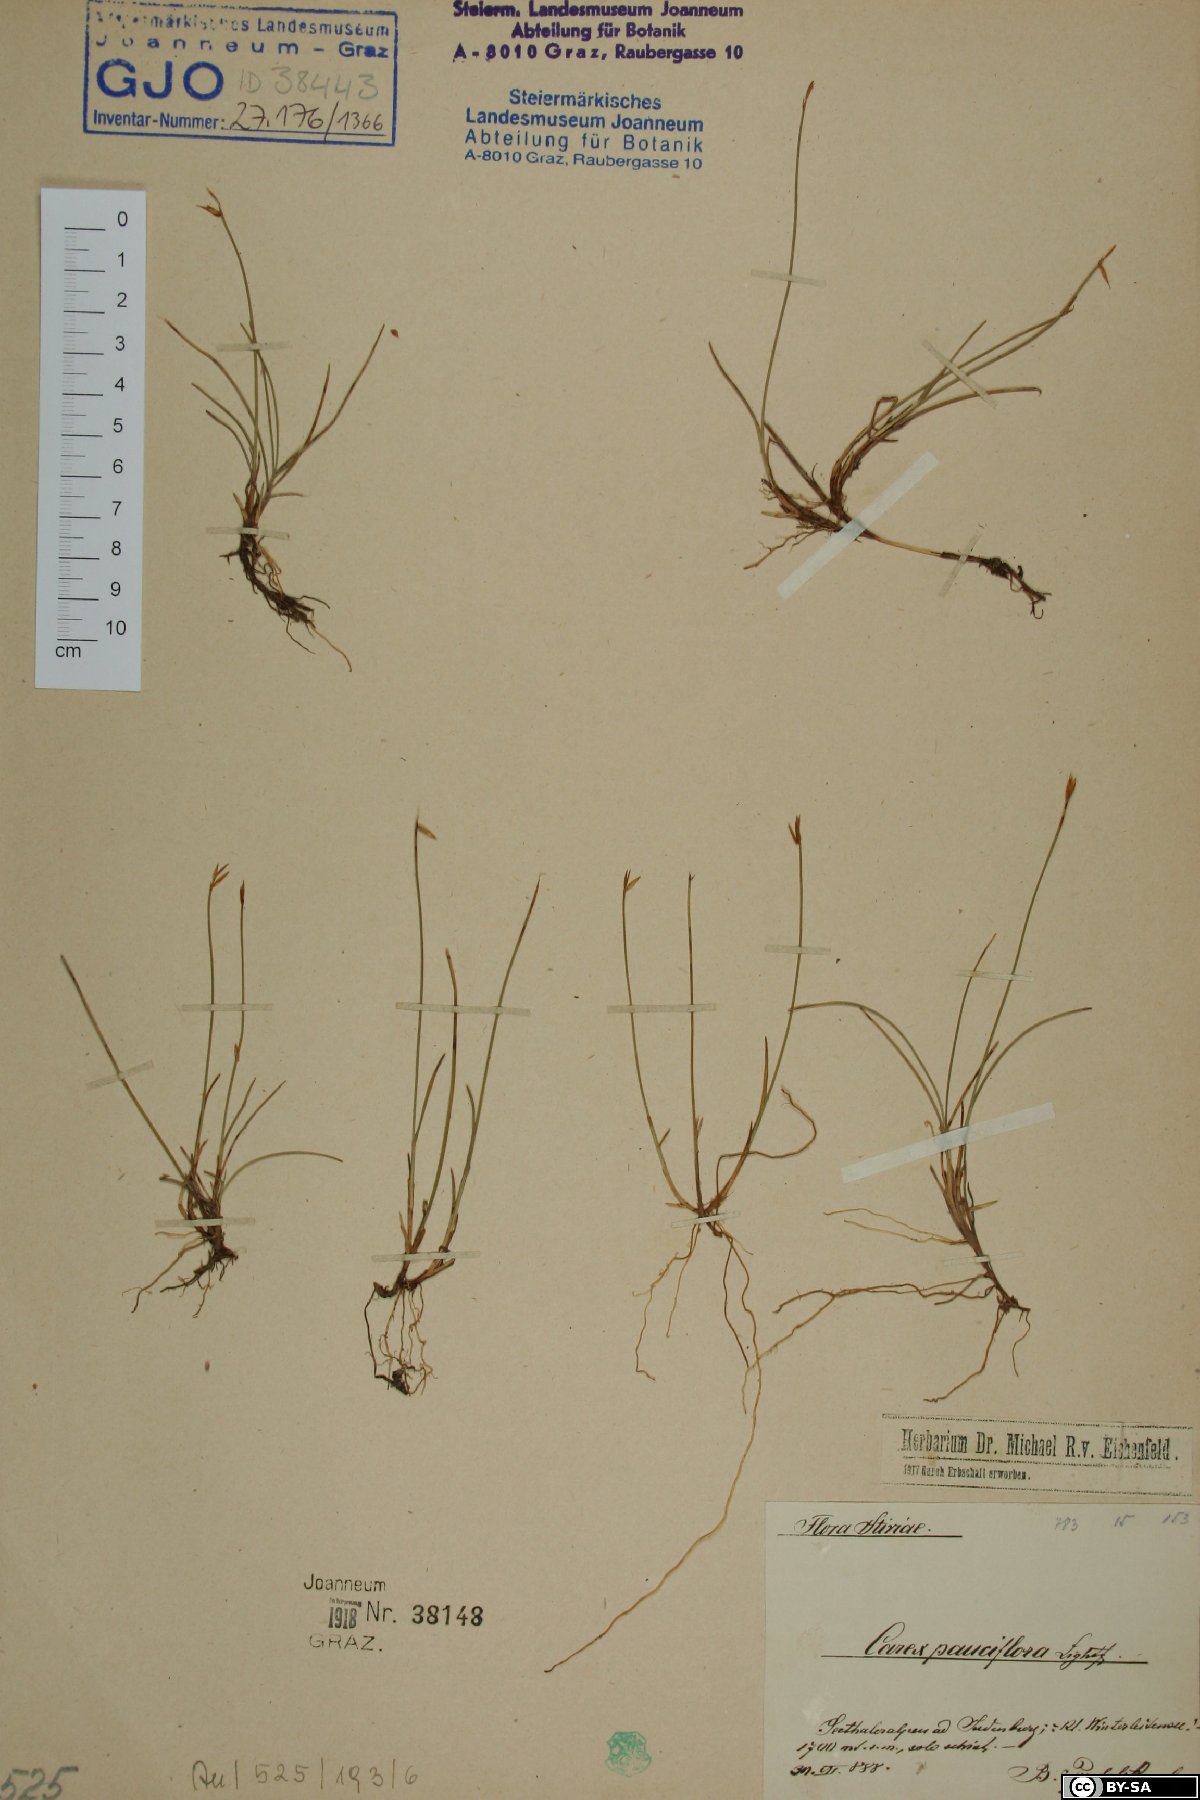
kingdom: Plantae
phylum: Tracheophyta
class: Liliopsida
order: Poales
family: Cyperaceae
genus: Carex
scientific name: Carex pauciflora
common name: Few-flowered sedge
